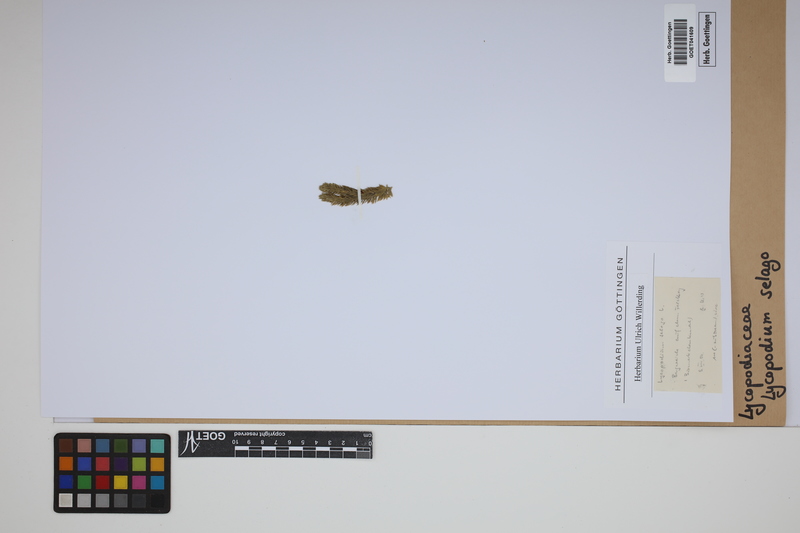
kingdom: Plantae
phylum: Tracheophyta
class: Lycopodiopsida
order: Lycopodiales
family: Lycopodiaceae
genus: Huperzia
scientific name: Huperzia selago
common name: Northern firmoss
